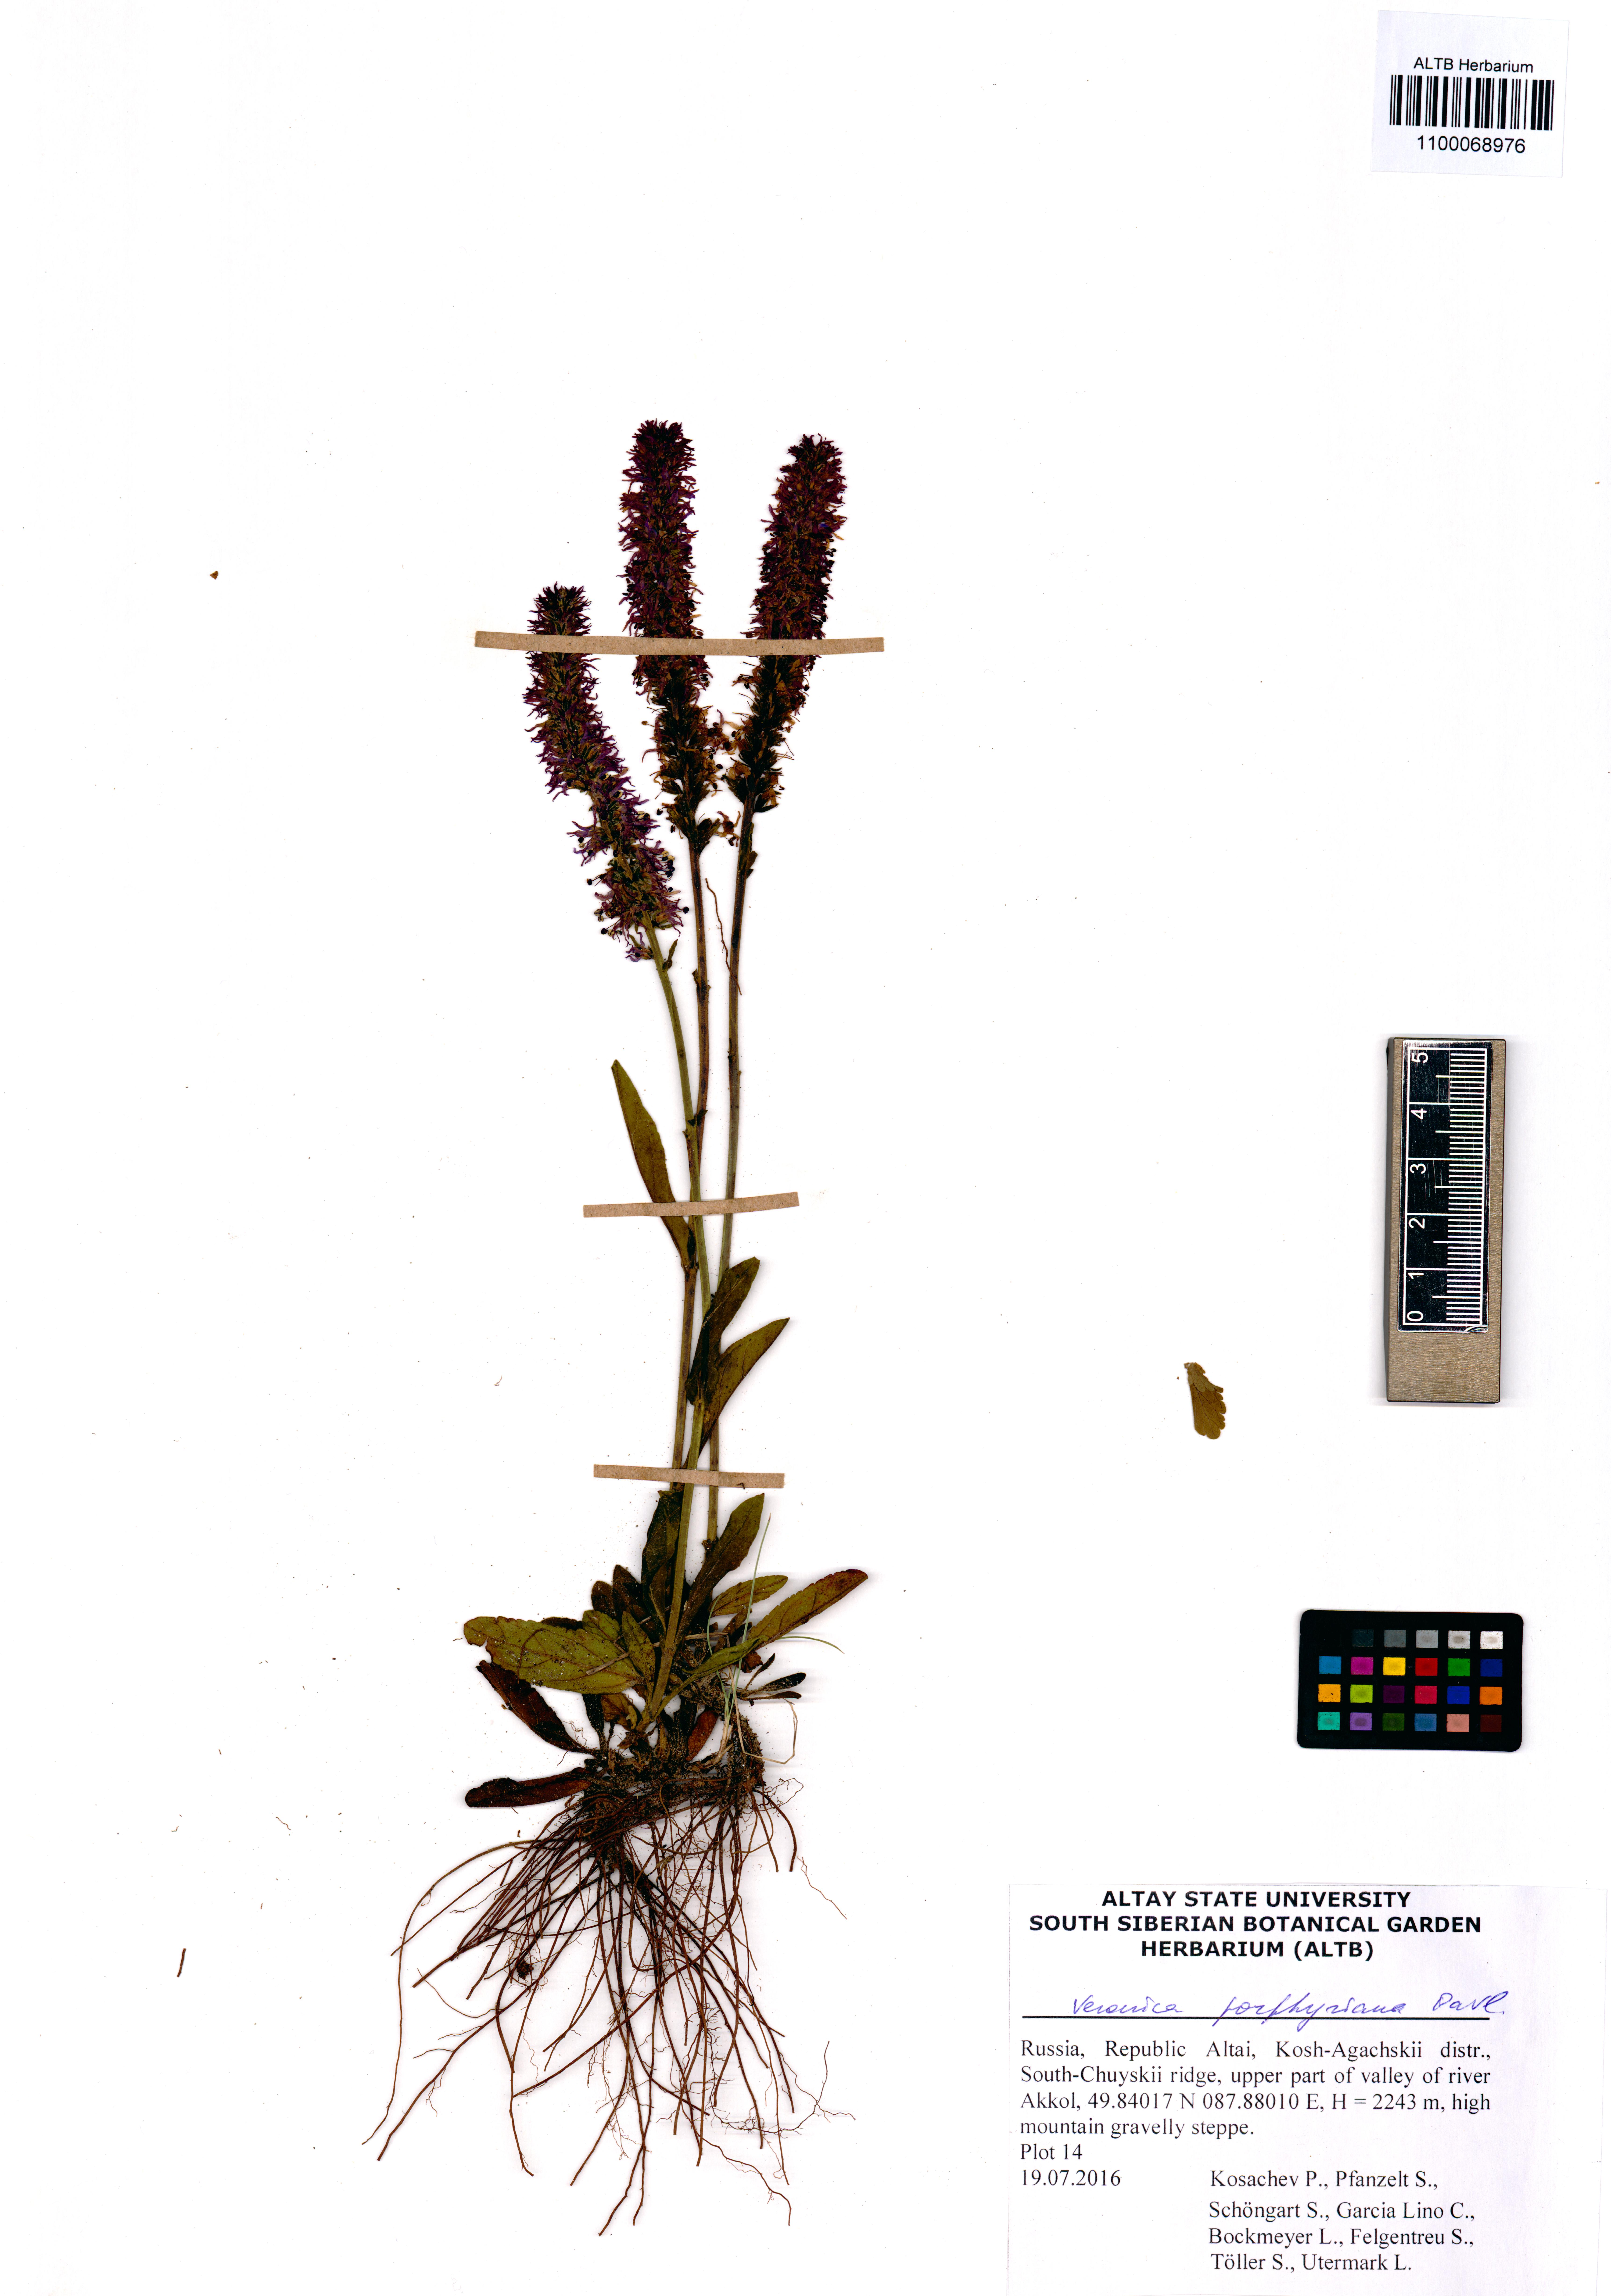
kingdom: Plantae
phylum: Tracheophyta
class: Magnoliopsida
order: Lamiales
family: Plantaginaceae
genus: Veronica
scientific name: Veronica porphyriana
